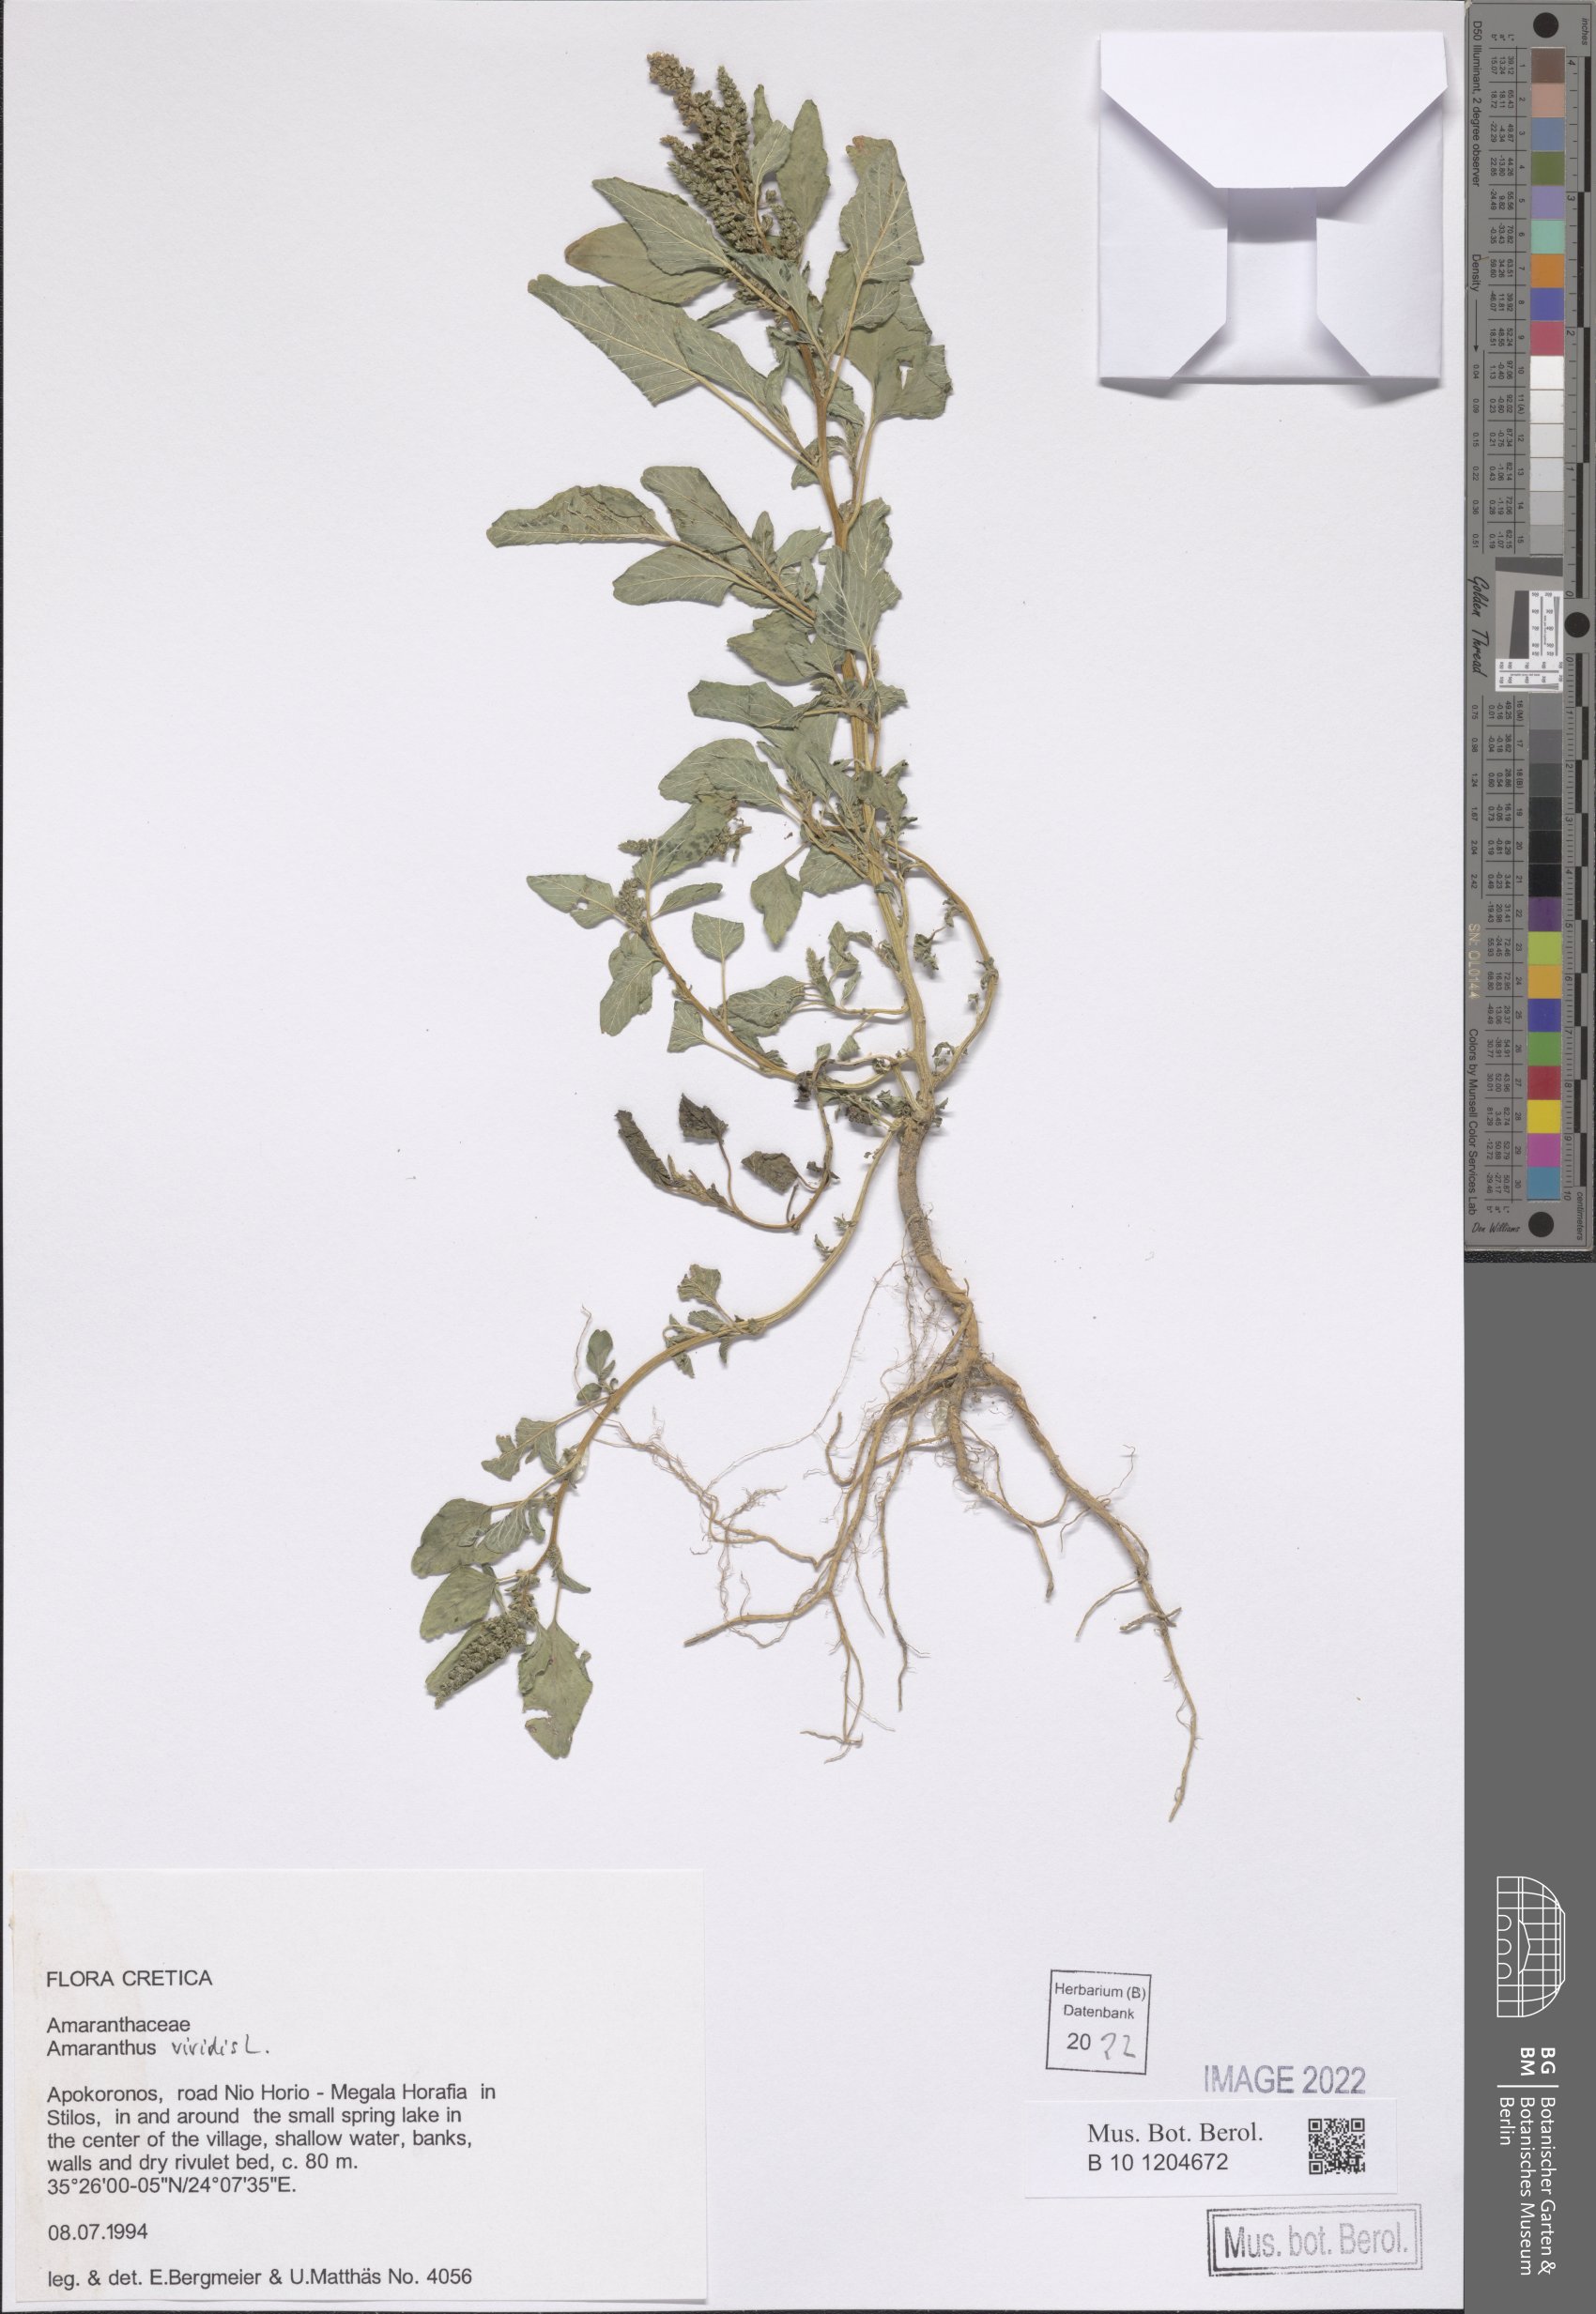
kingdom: Plantae
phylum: Tracheophyta
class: Magnoliopsida
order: Caryophyllales
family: Amaranthaceae
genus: Amaranthus
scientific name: Amaranthus viridis
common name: Slender amaranth
